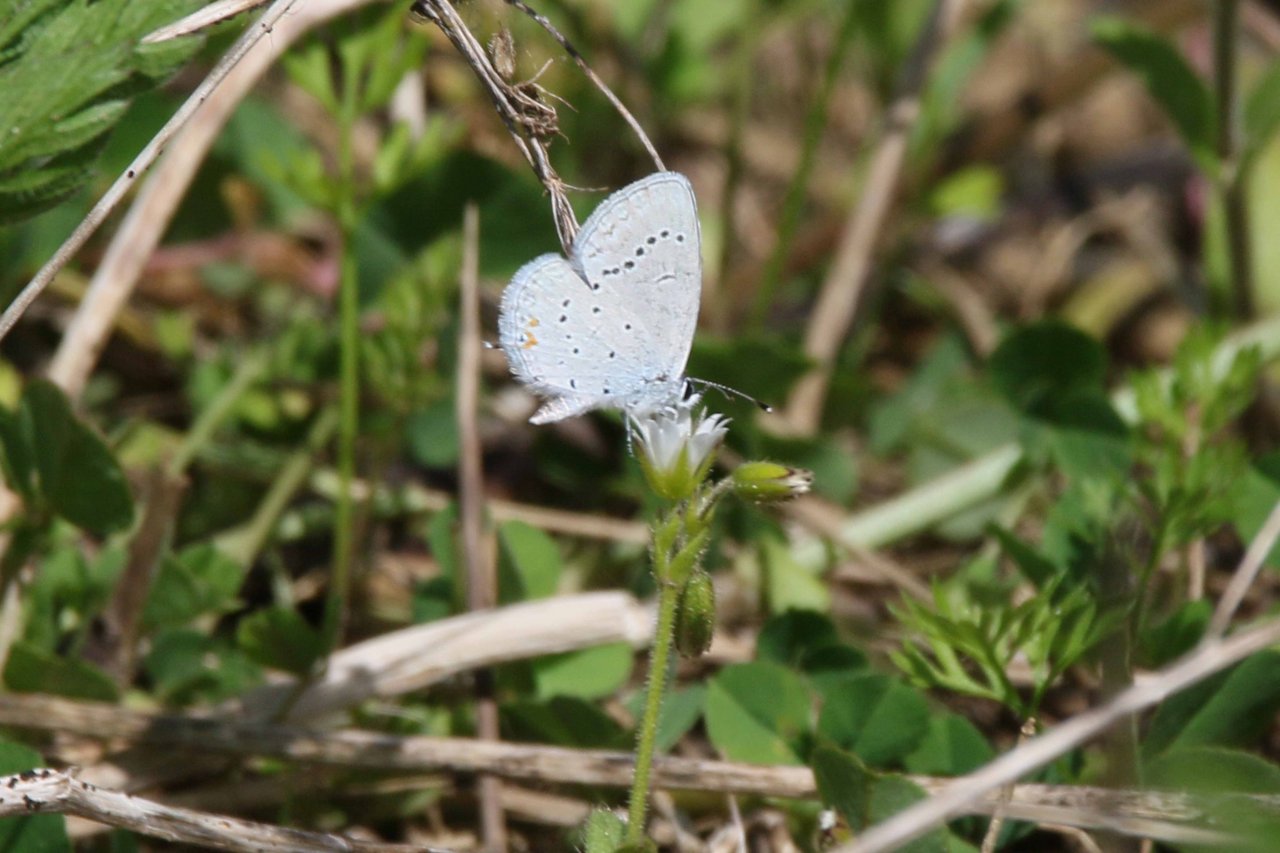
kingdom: Animalia
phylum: Arthropoda
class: Insecta
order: Lepidoptera
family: Lycaenidae
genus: Elkalyce
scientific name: Elkalyce comyntas
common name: Eastern Tailed-Blue
